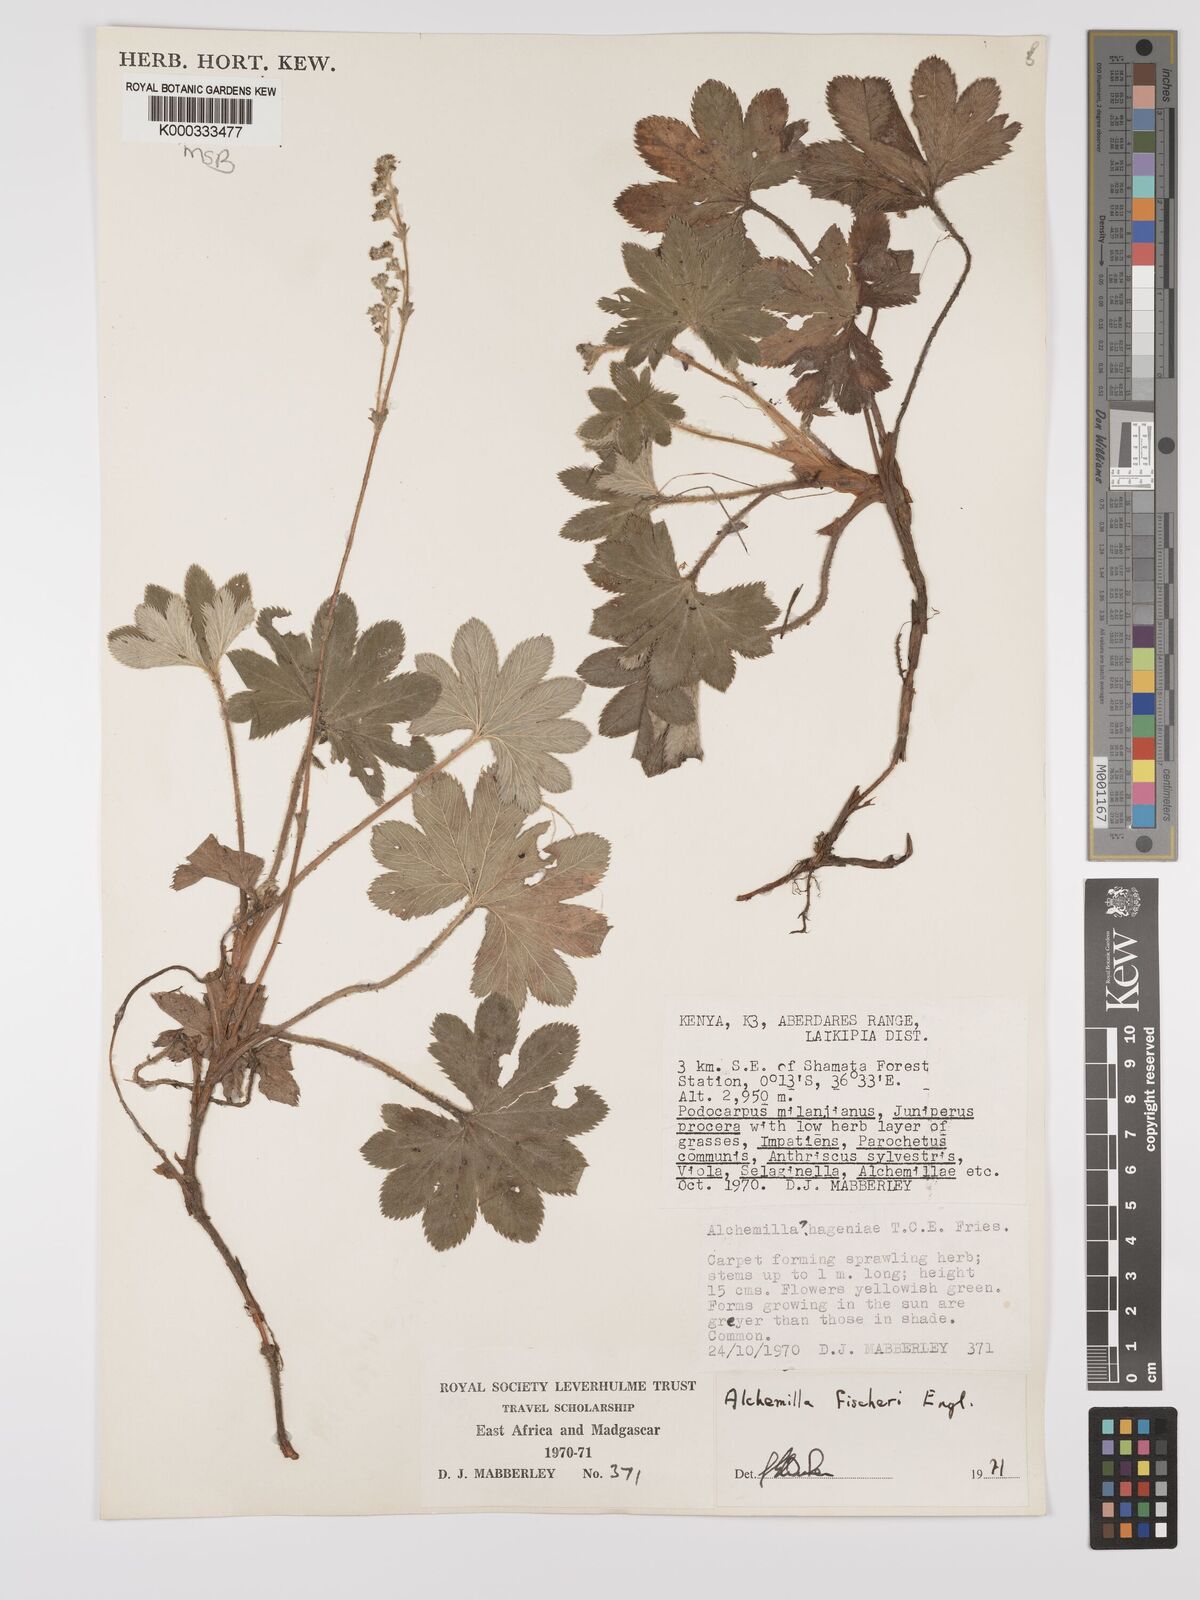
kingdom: Plantae
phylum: Tracheophyta
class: Magnoliopsida
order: Rosales
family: Rosaceae
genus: Alchemilla
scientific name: Alchemilla fischeri
